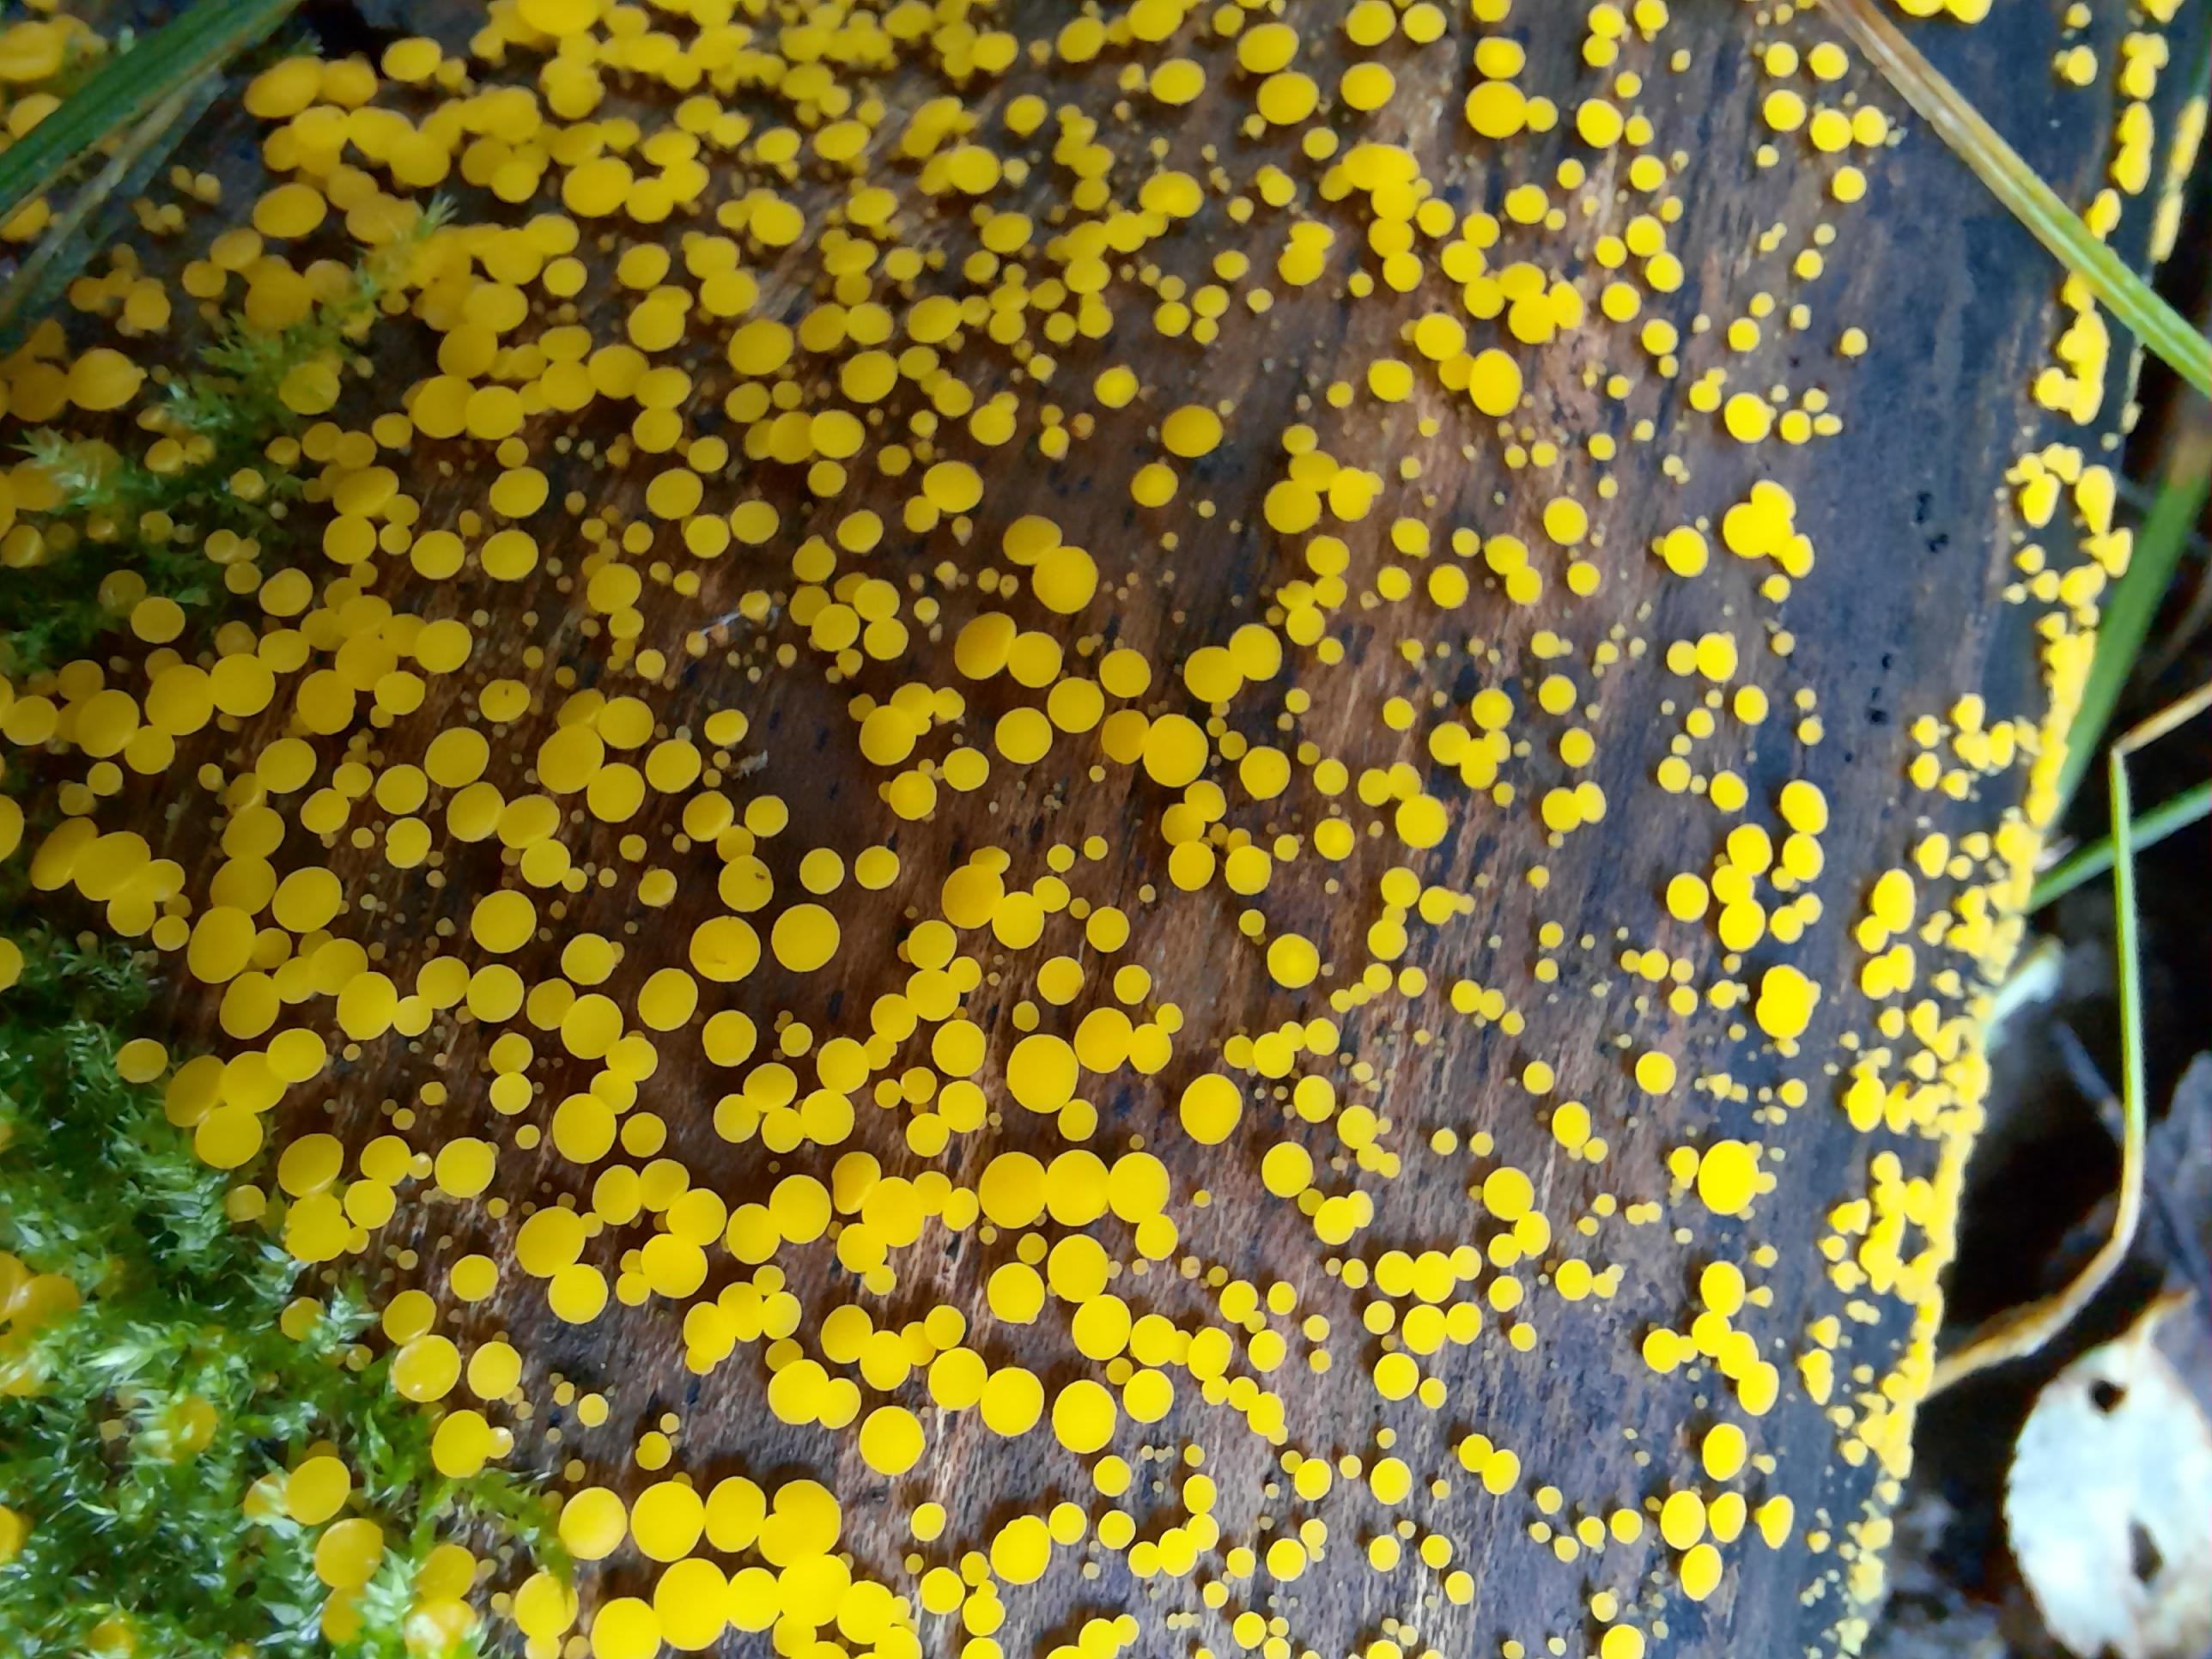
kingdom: Fungi
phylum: Ascomycota
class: Leotiomycetes
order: Helotiales
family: Pezizellaceae
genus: Calycina
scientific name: Calycina citrina
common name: almindelig gulskive
